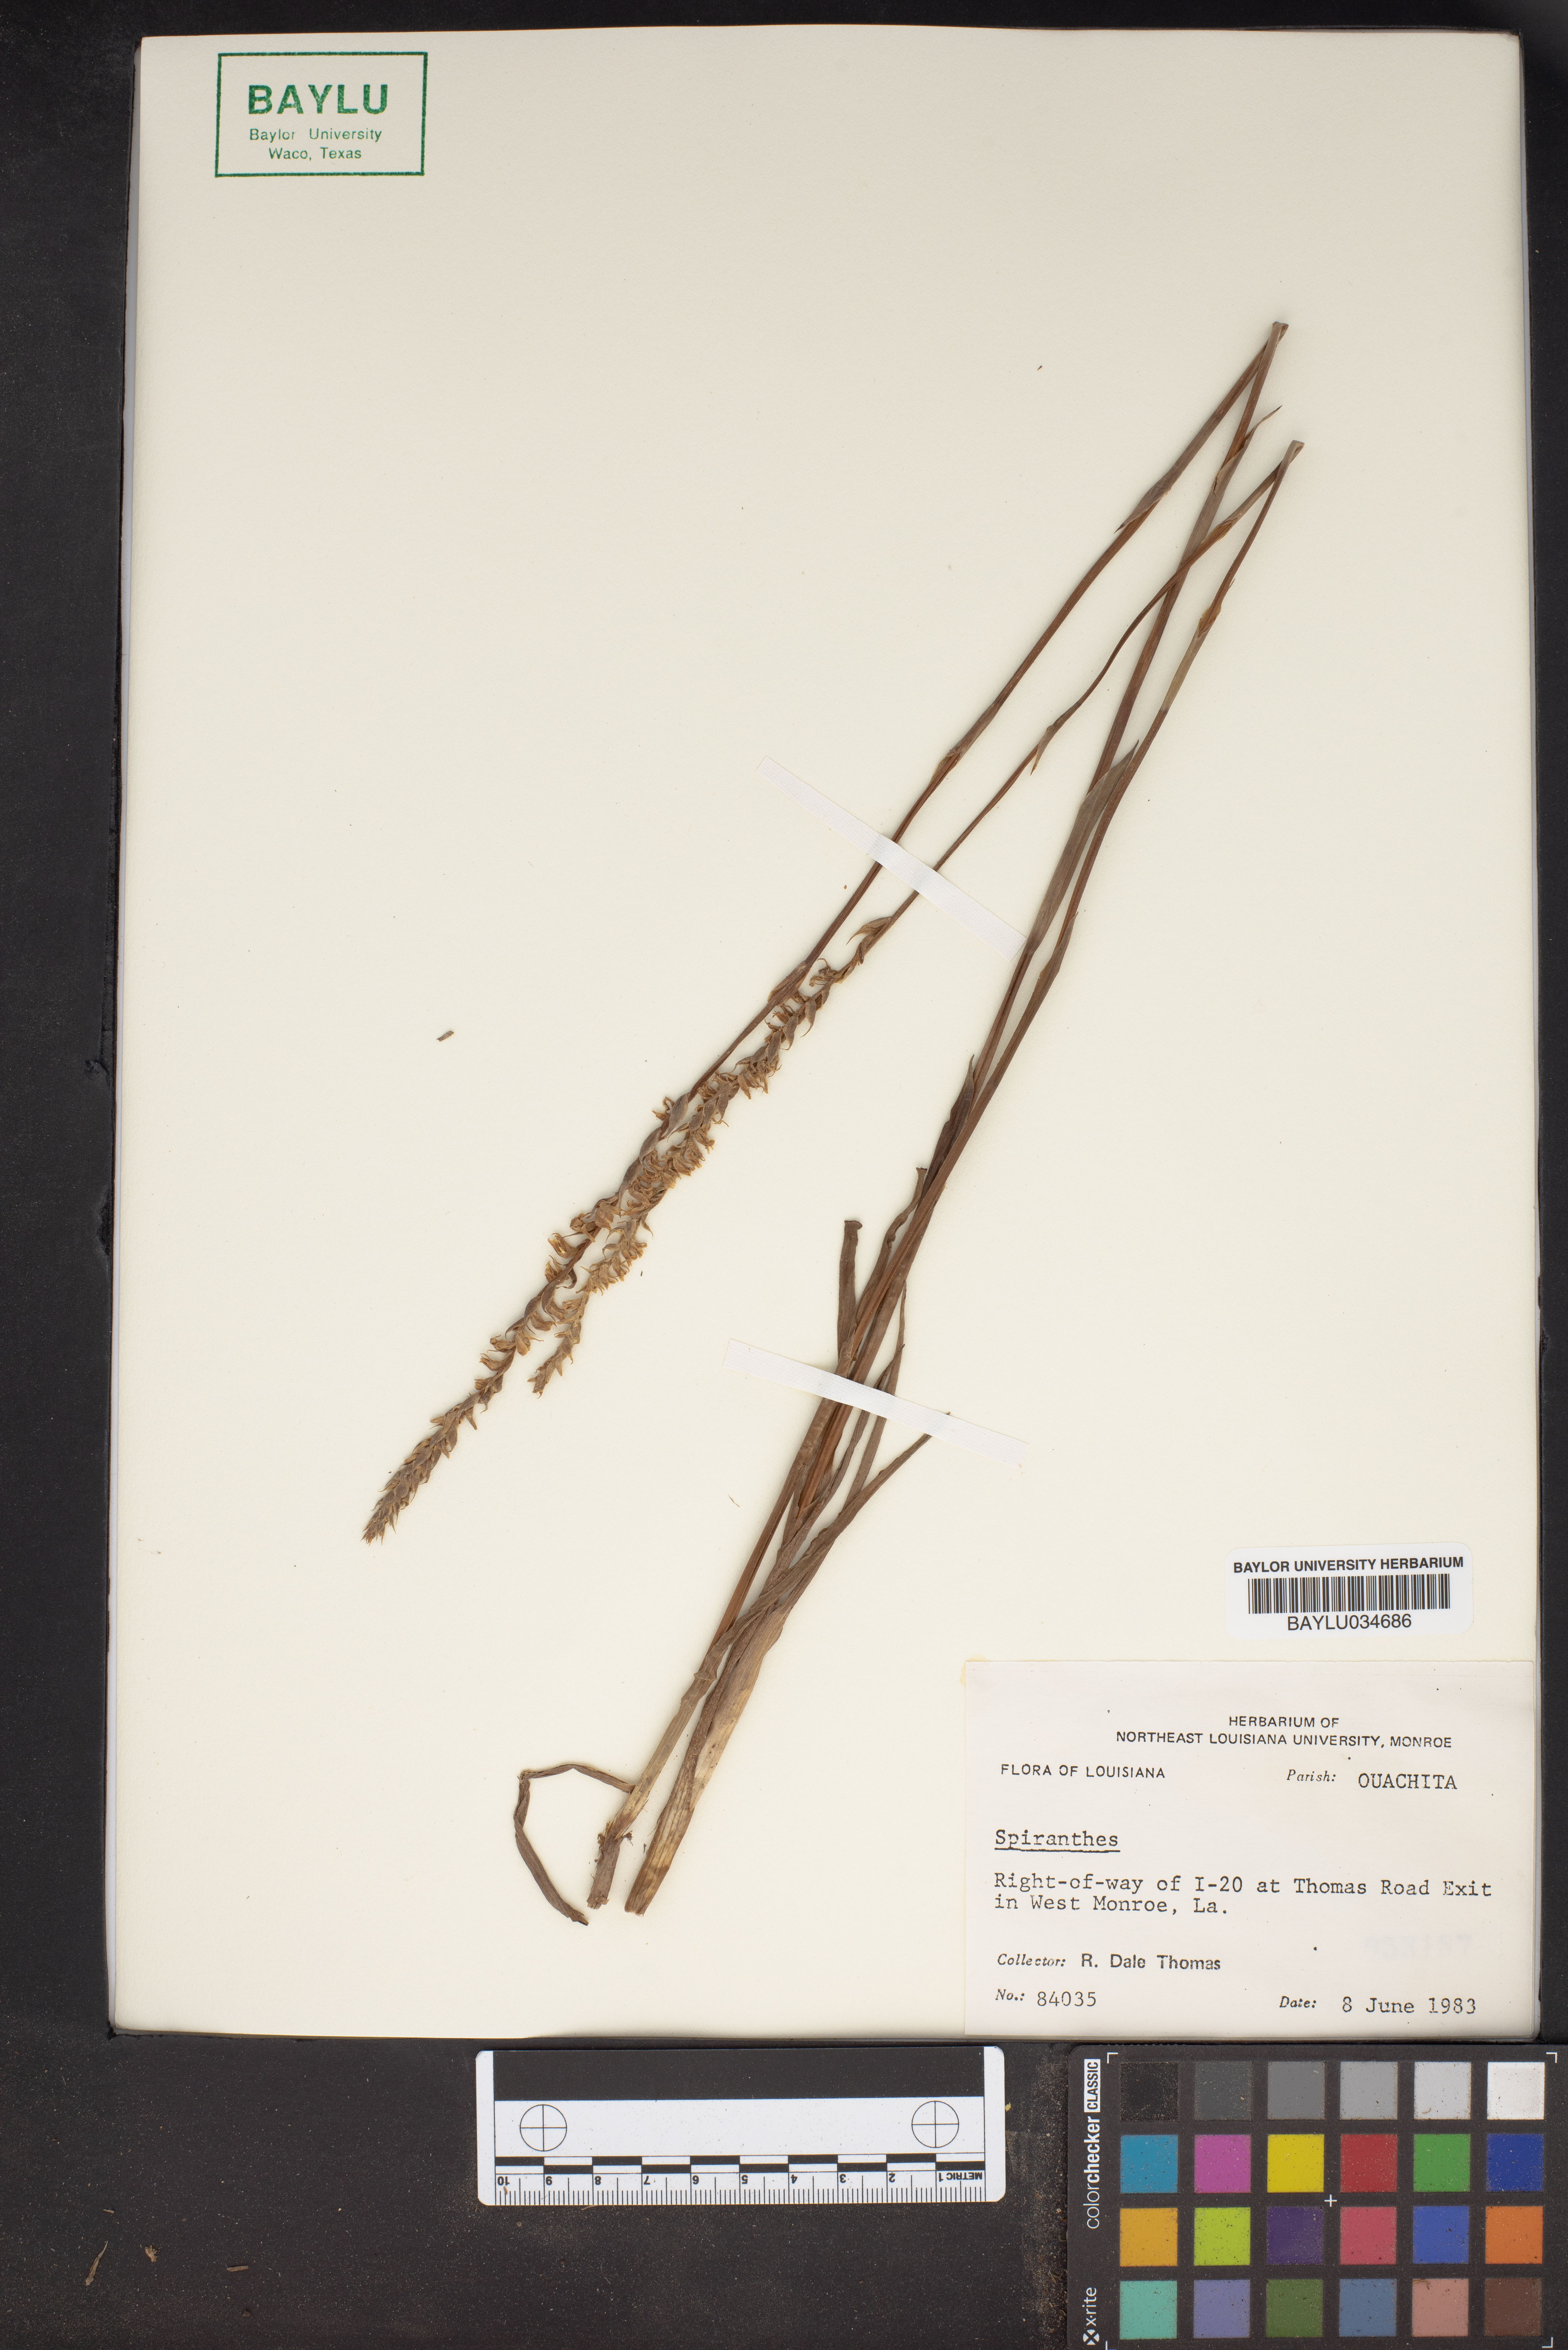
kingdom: Plantae
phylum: Tracheophyta
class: Liliopsida
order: Asparagales
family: Orchidaceae
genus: Spiranthes
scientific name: Spiranthes longilabris
